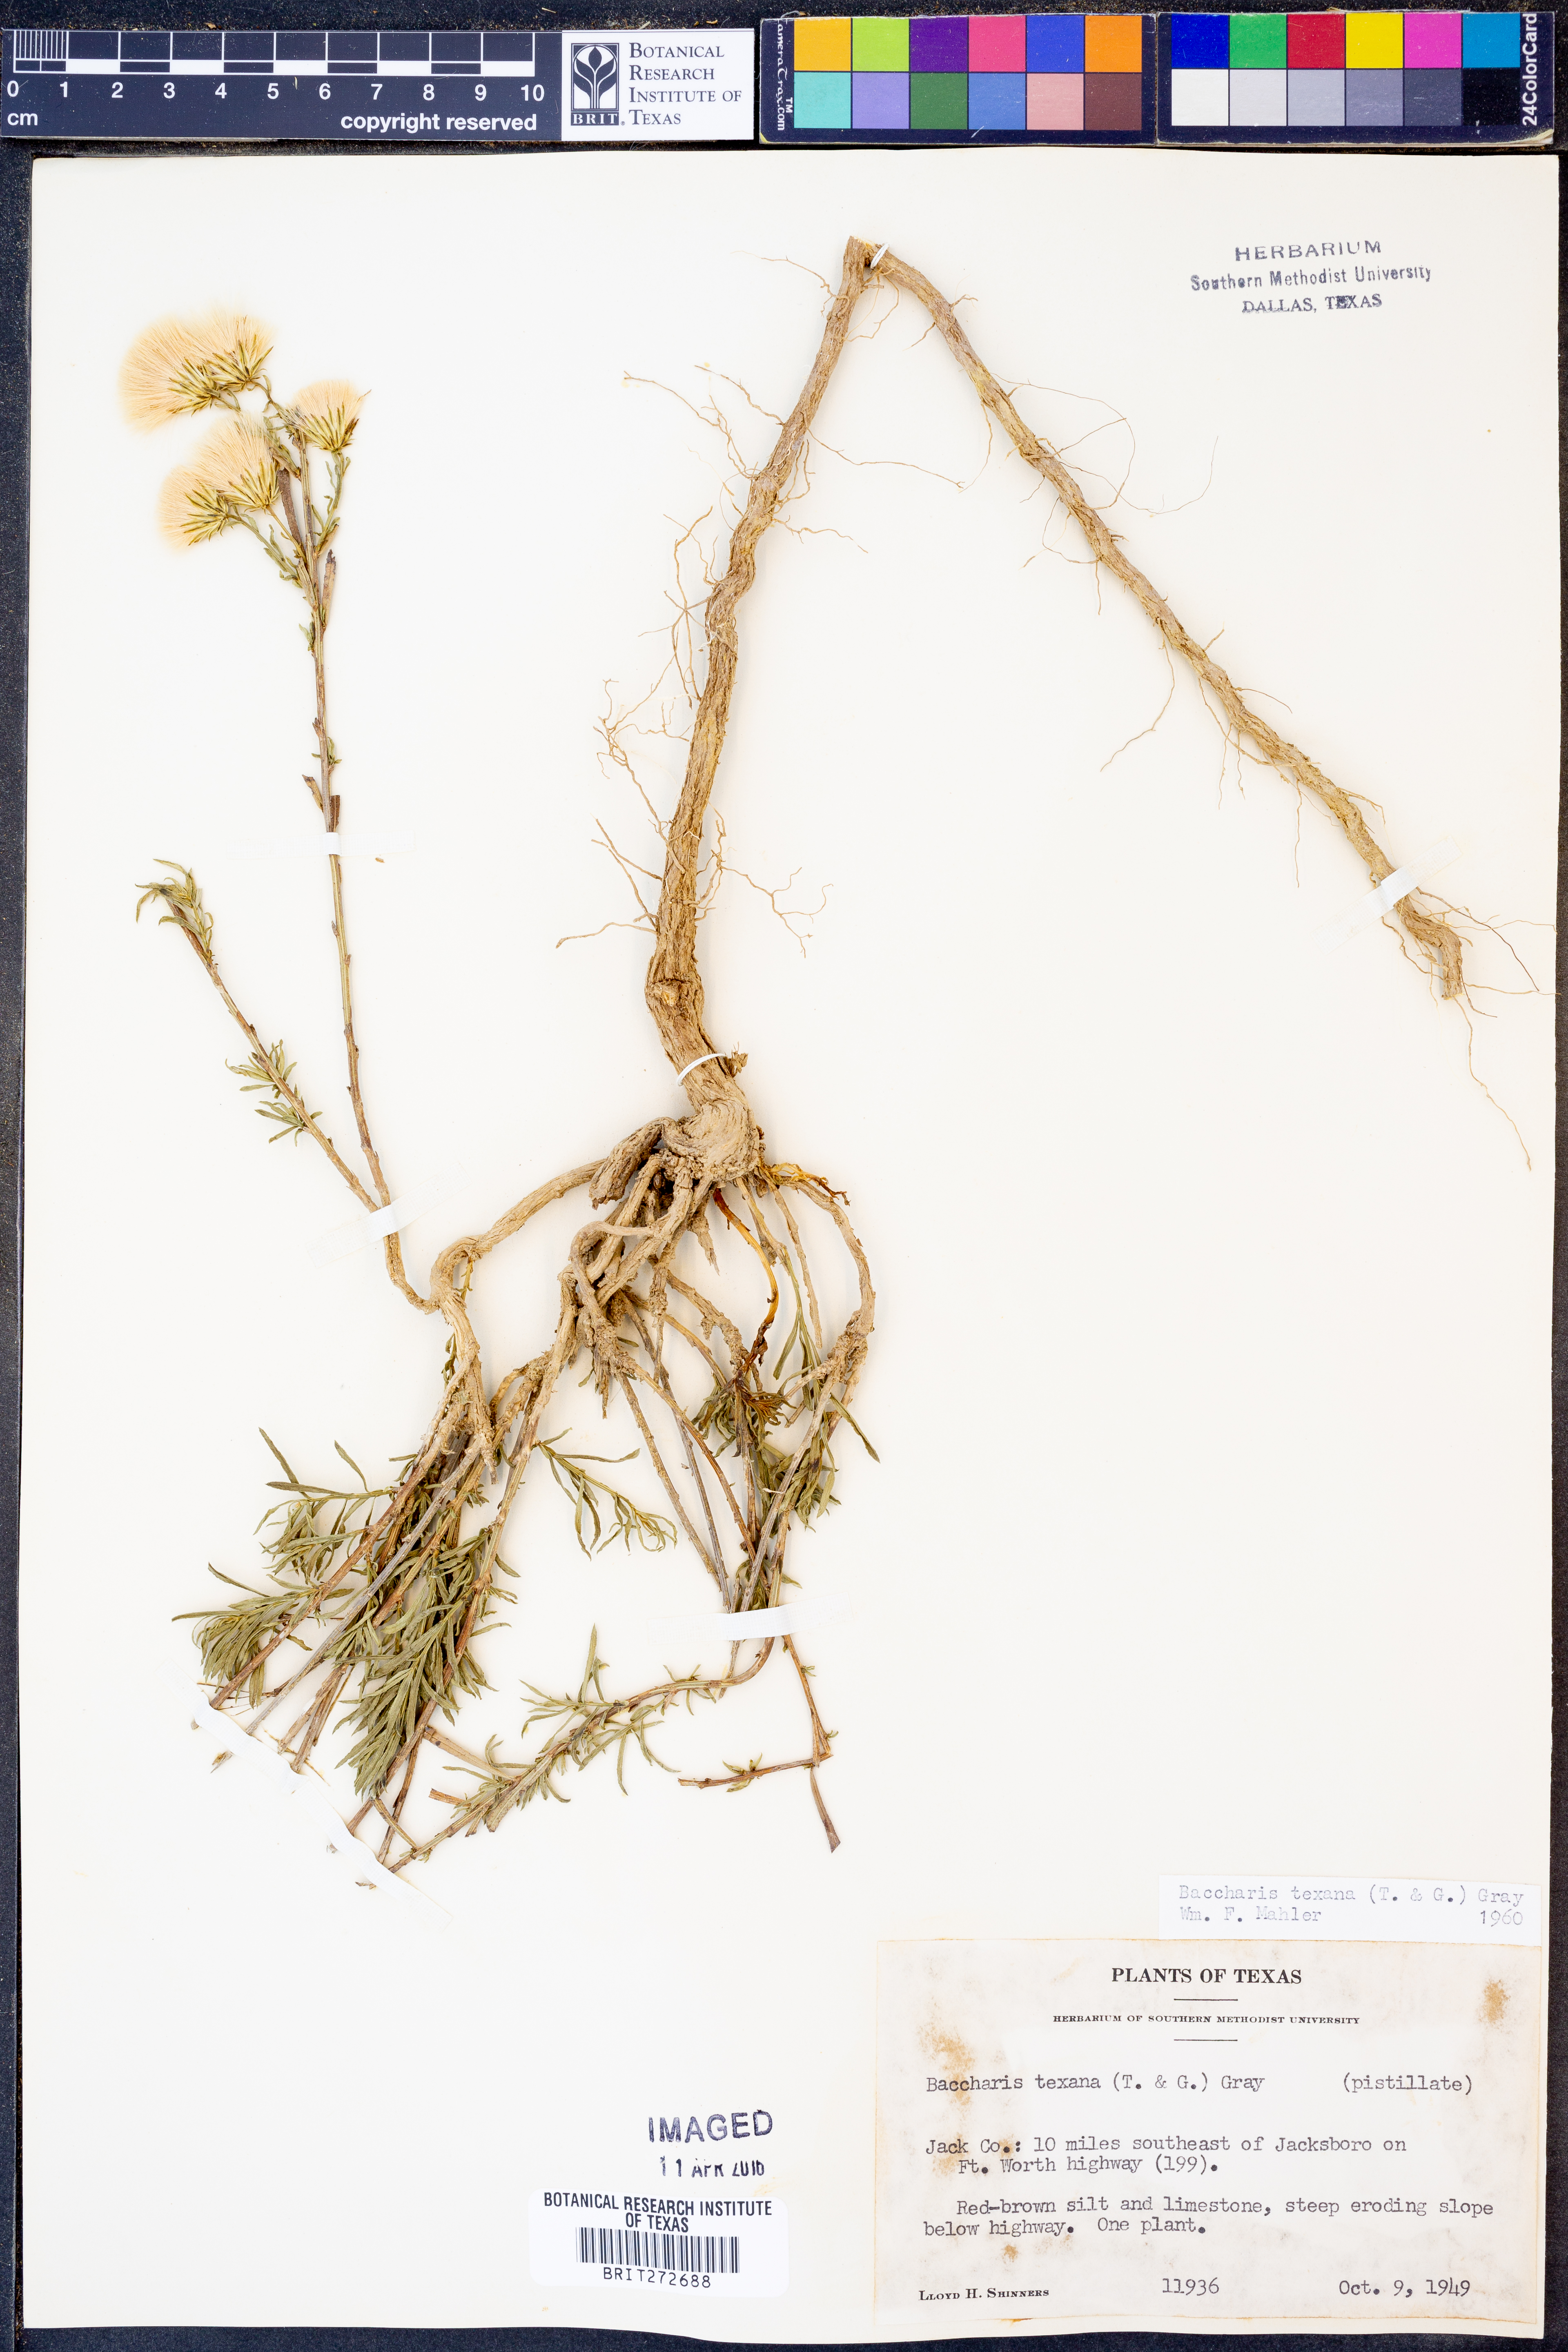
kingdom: Plantae
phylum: Tracheophyta
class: Magnoliopsida
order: Asterales
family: Asteraceae
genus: Baccharis
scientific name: Baccharis texana
